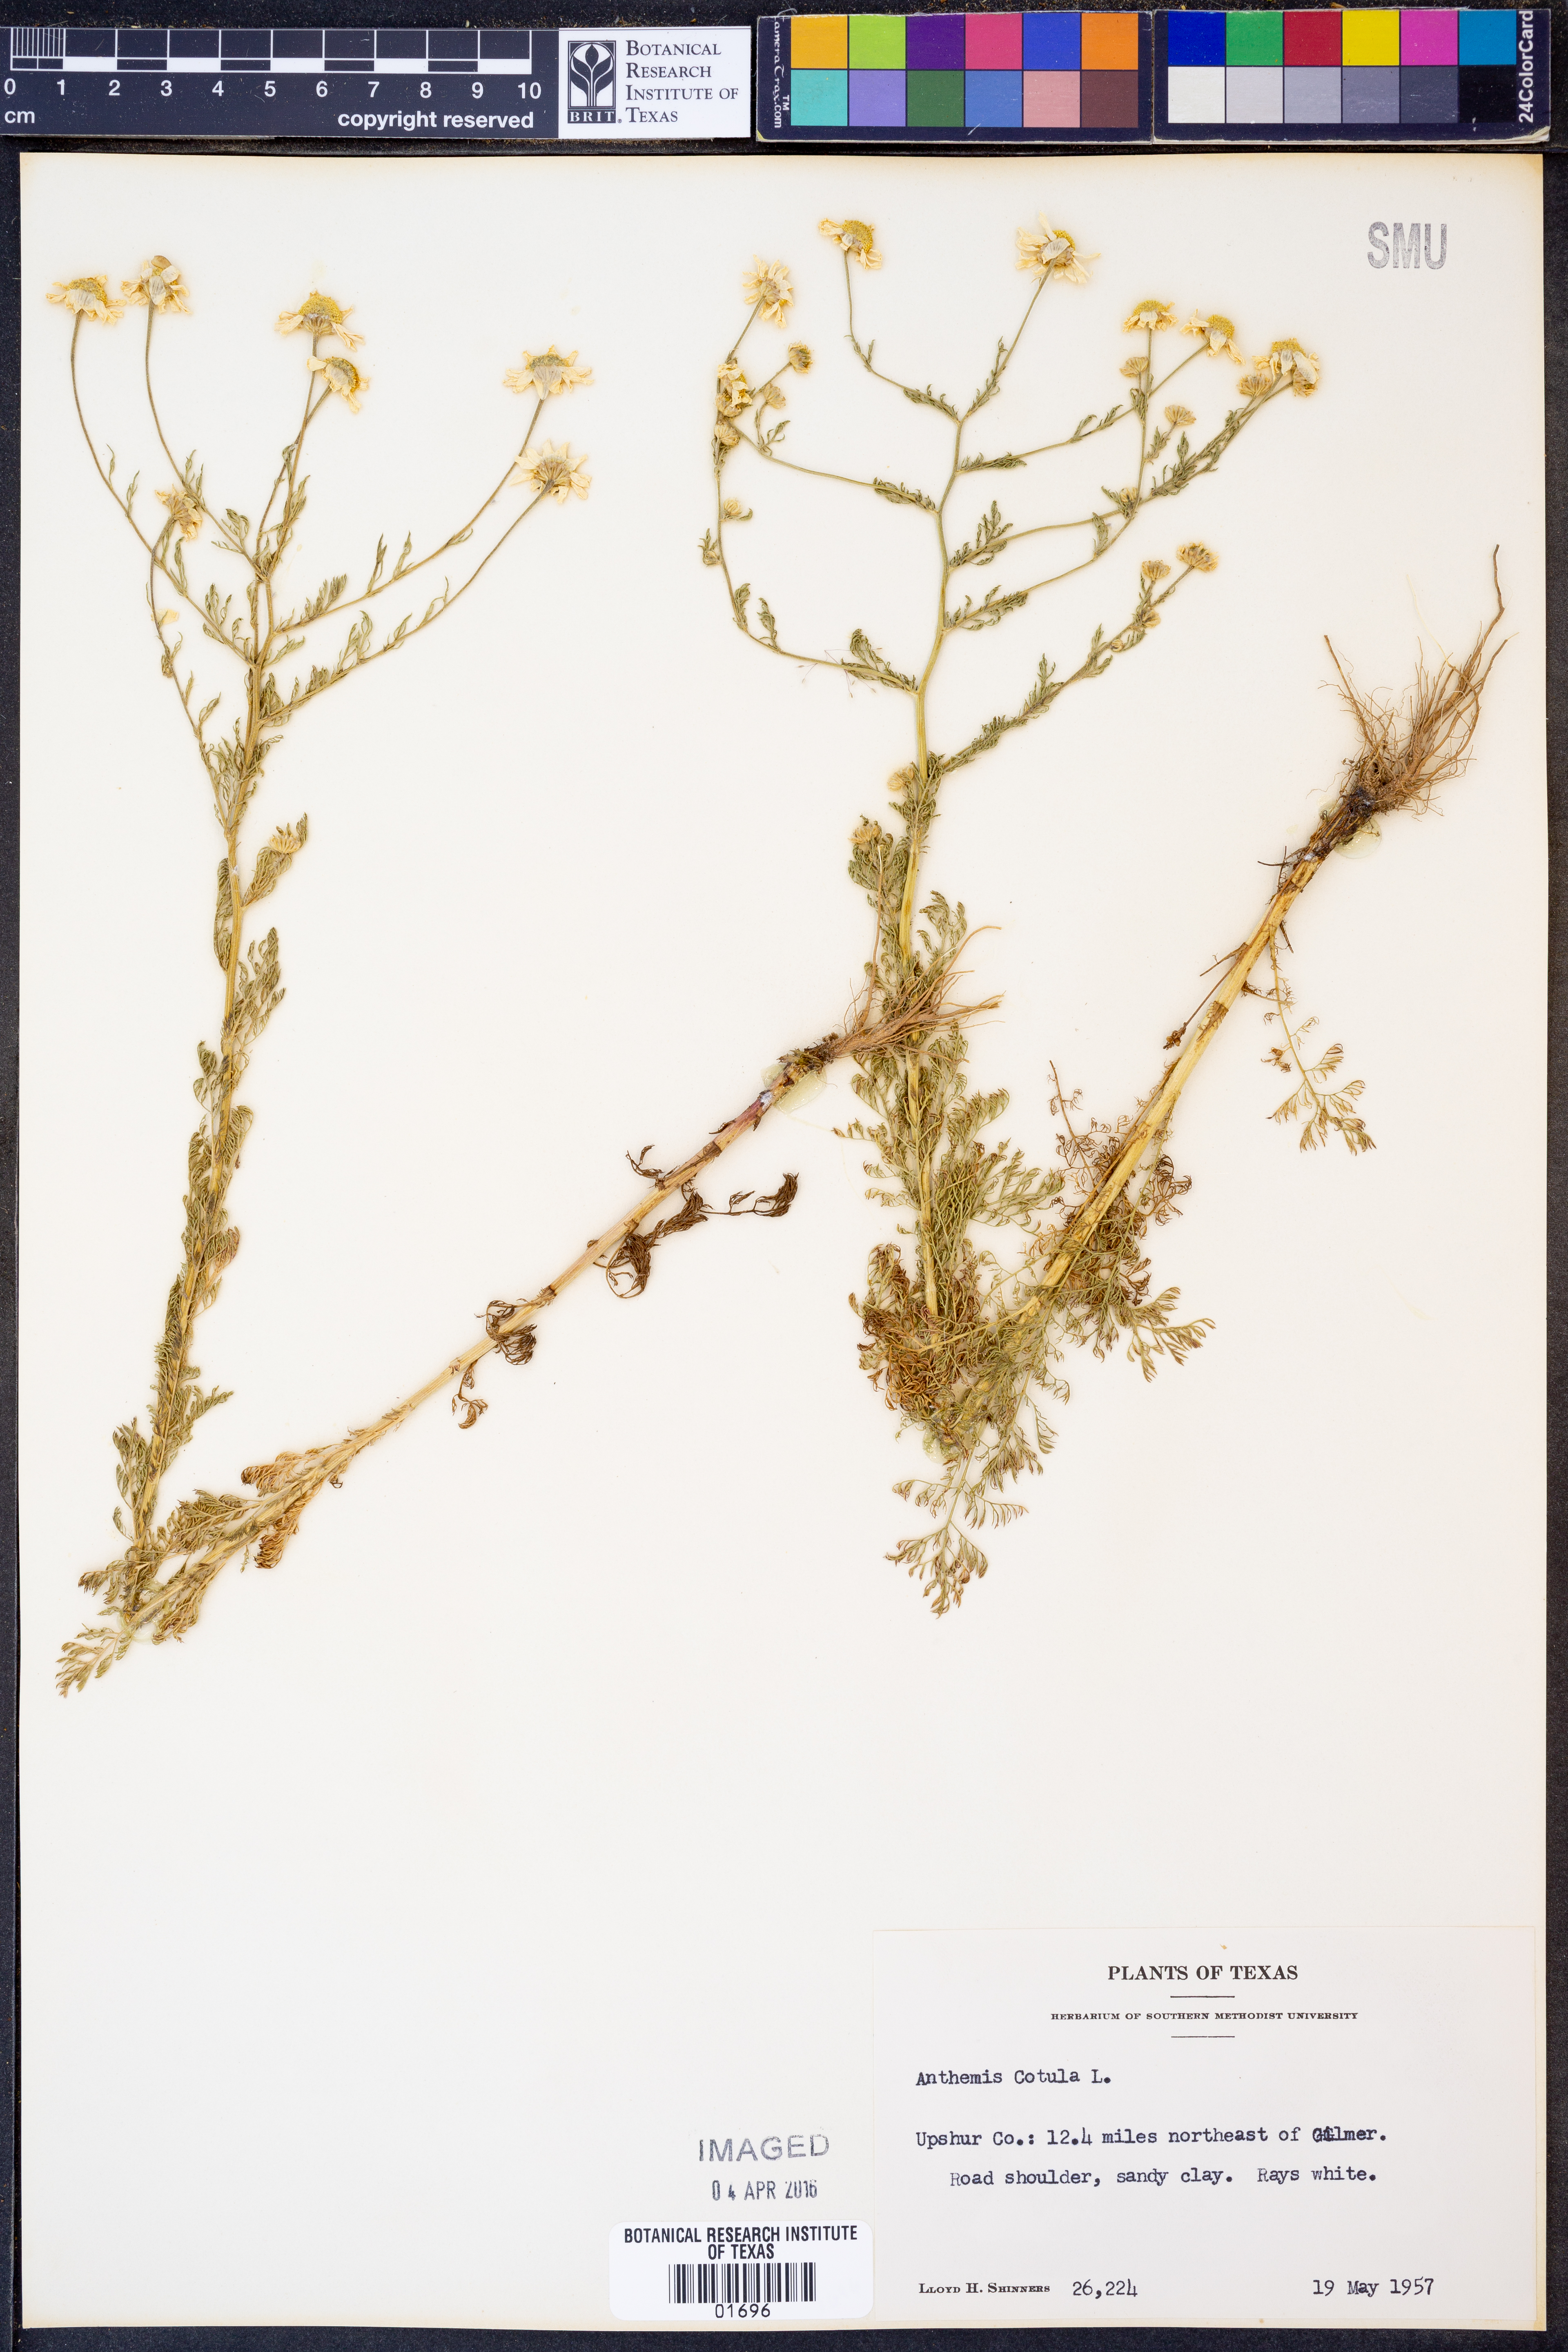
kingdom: Plantae
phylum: Tracheophyta
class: Magnoliopsida
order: Asterales
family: Asteraceae
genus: Anthemis
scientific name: Anthemis cotula
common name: Stinking chamomile
